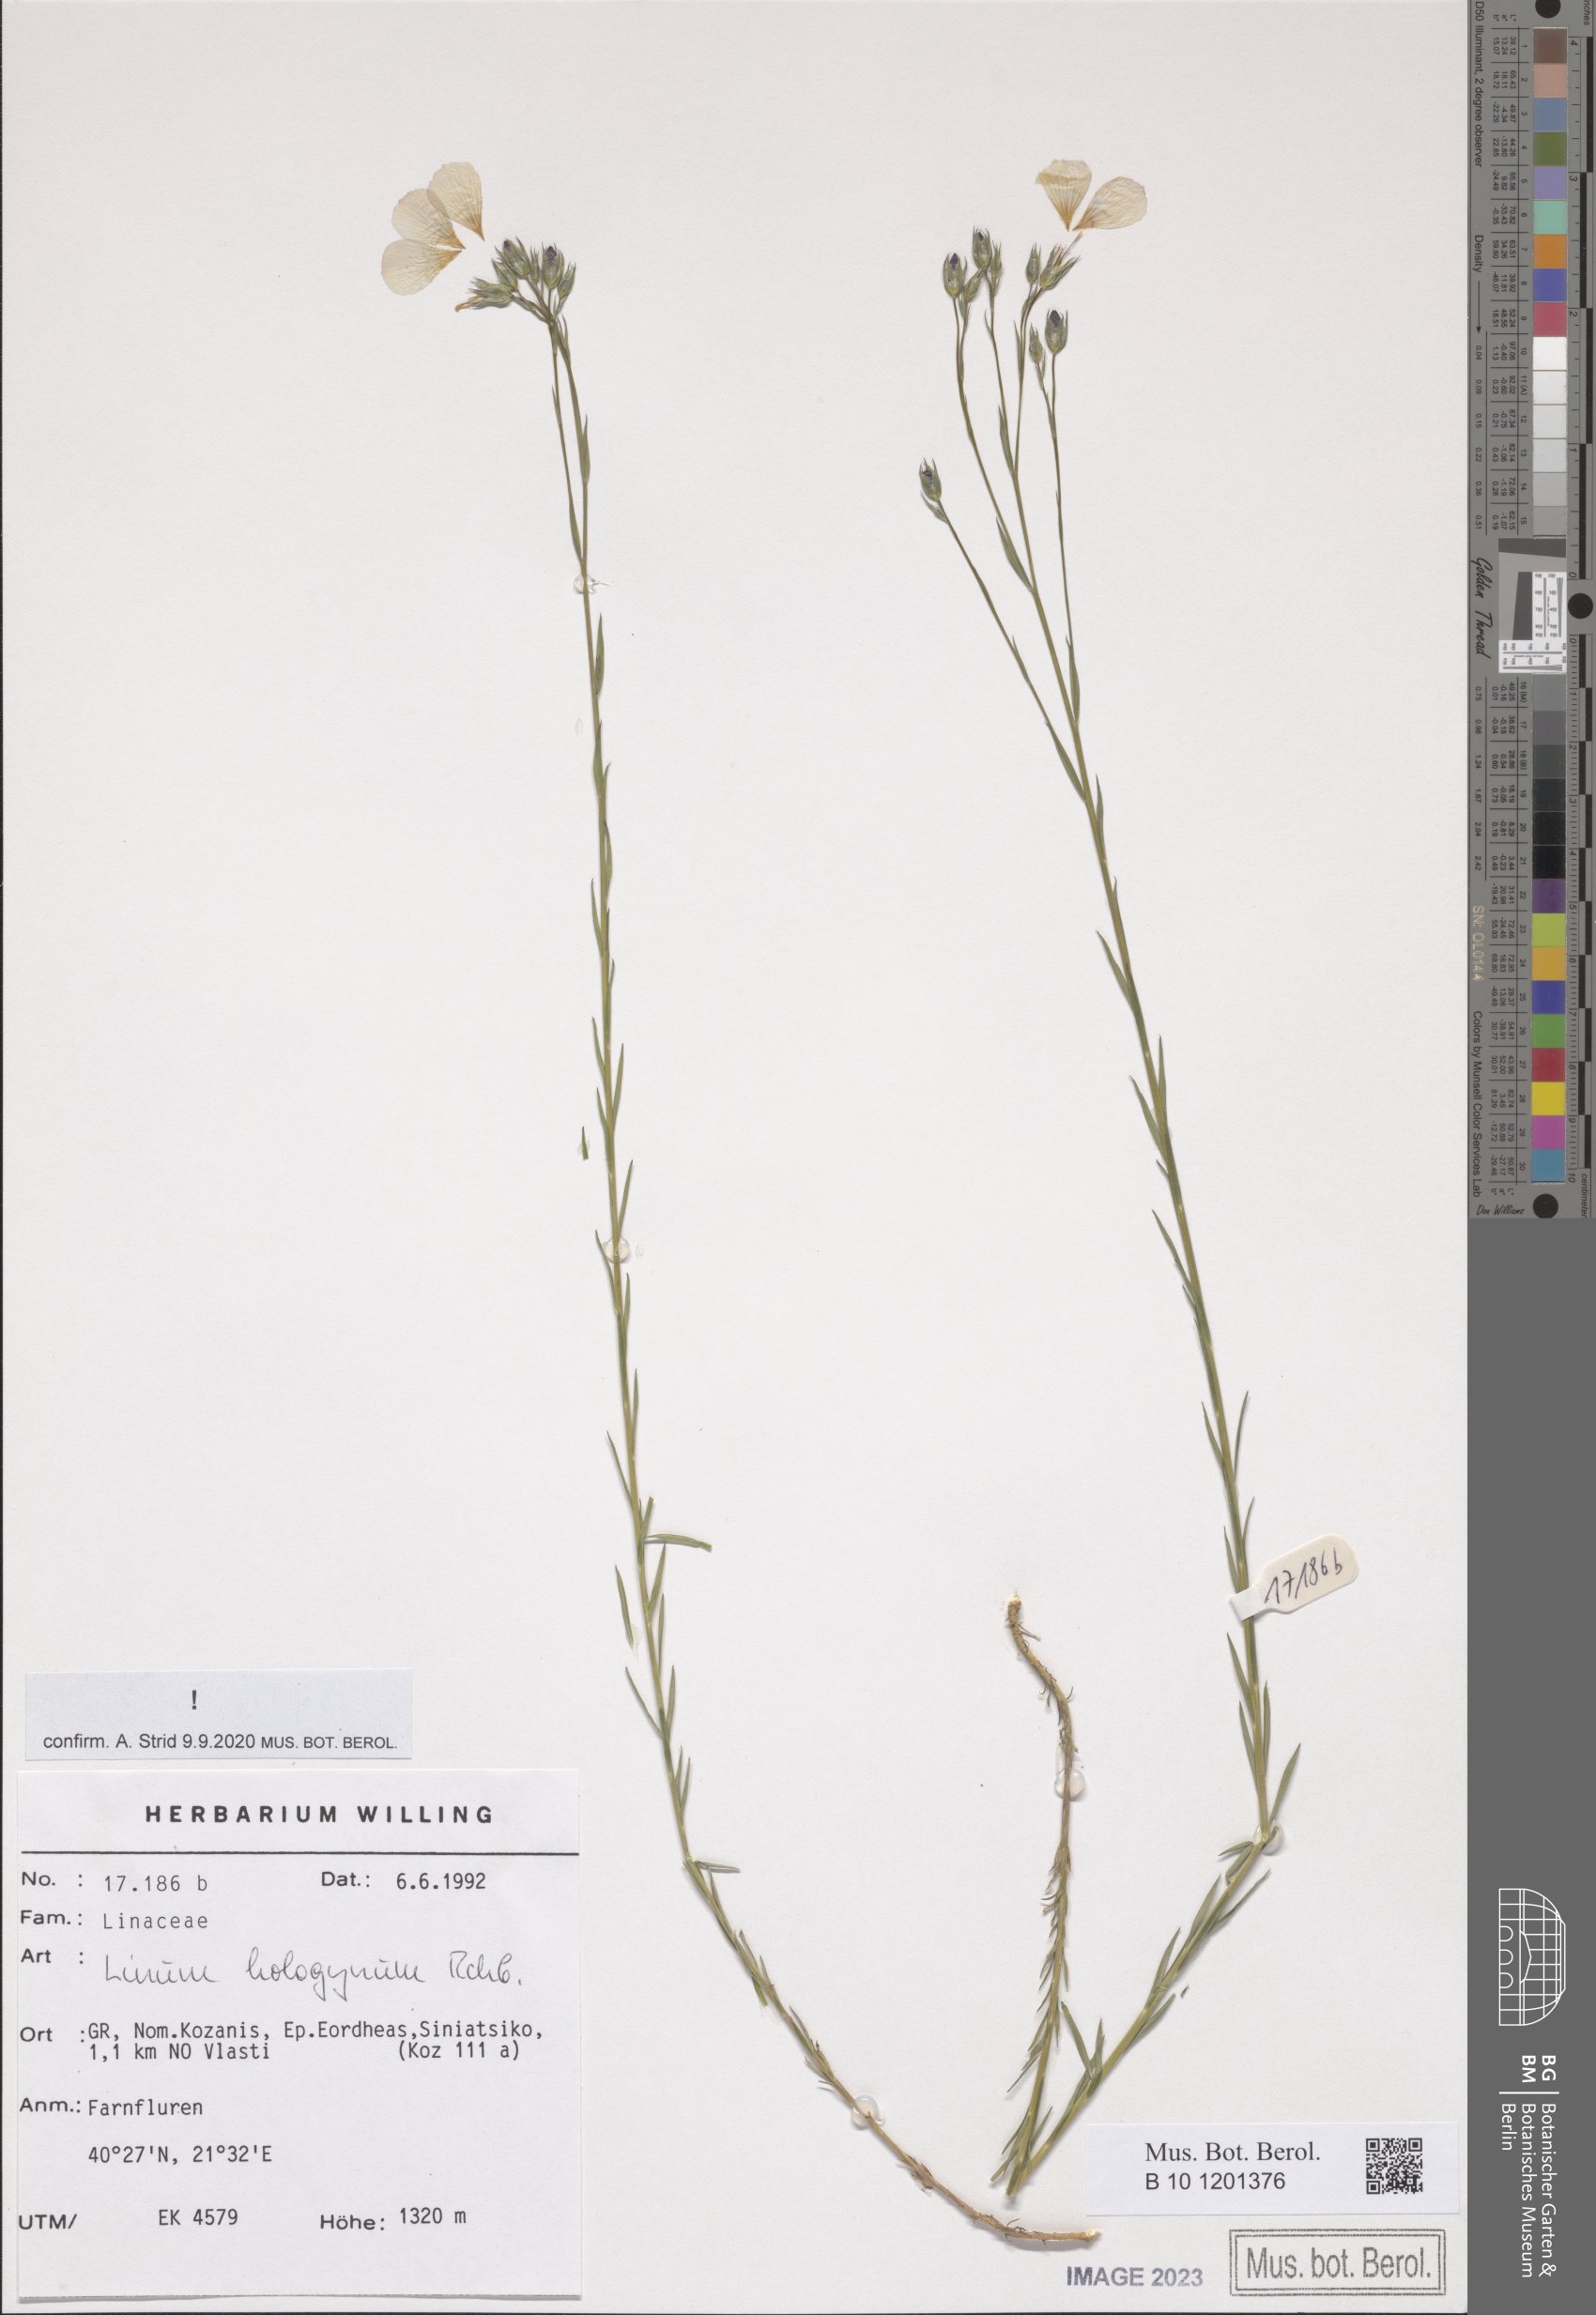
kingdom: Plantae
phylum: Tracheophyta
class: Magnoliopsida
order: Malpighiales
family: Linaceae
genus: Linum
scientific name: Linum hologynum
